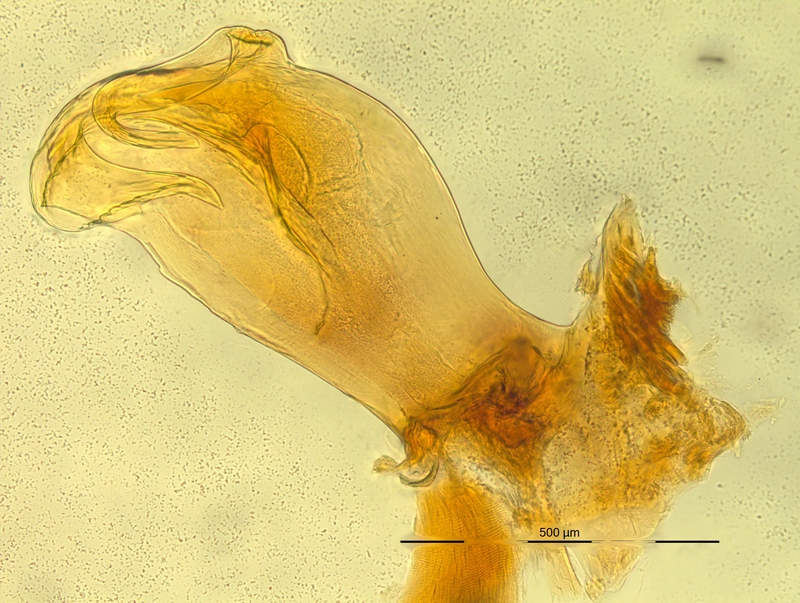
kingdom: Animalia
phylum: Arthropoda
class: Diplopoda
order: Chordeumatida
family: Craspedosomatidae
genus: Bergamosoma
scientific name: Bergamosoma bergomatium
